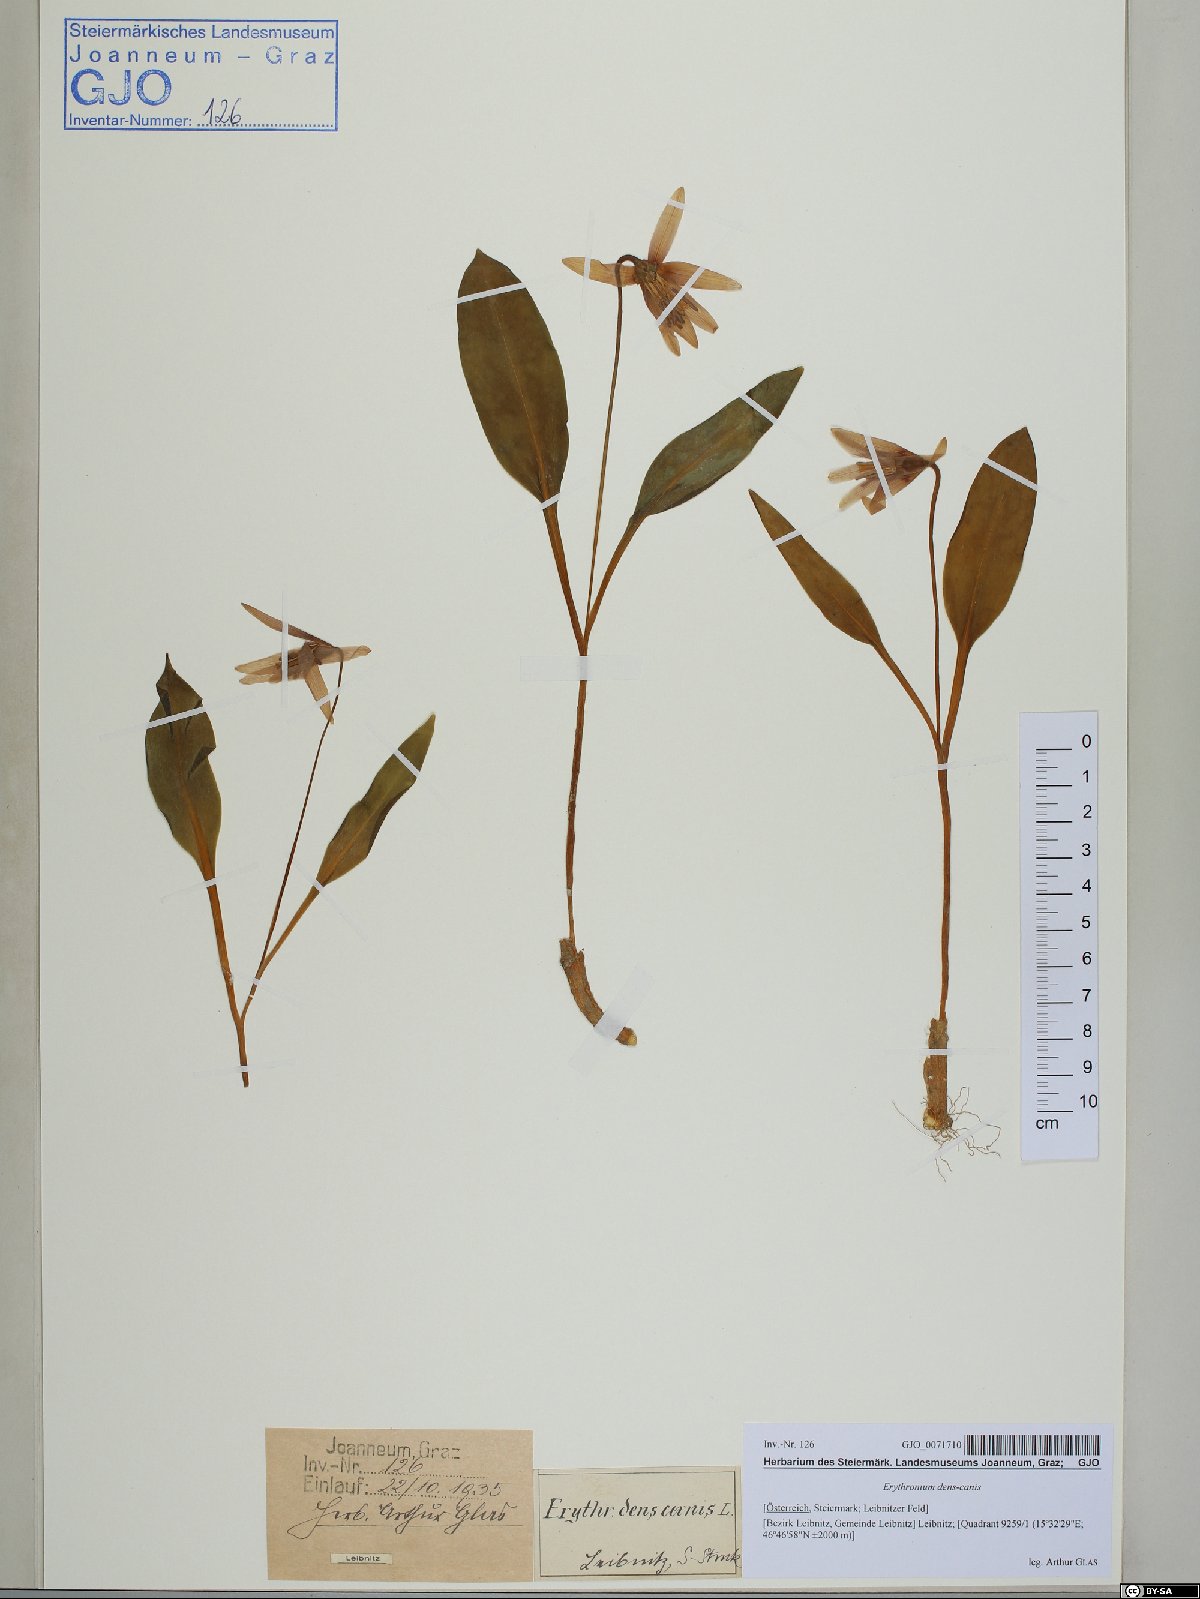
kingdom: Plantae
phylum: Tracheophyta
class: Liliopsida
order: Liliales
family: Liliaceae
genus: Erythronium
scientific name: Erythronium dens-canis
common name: Dog's-tooth-violet
